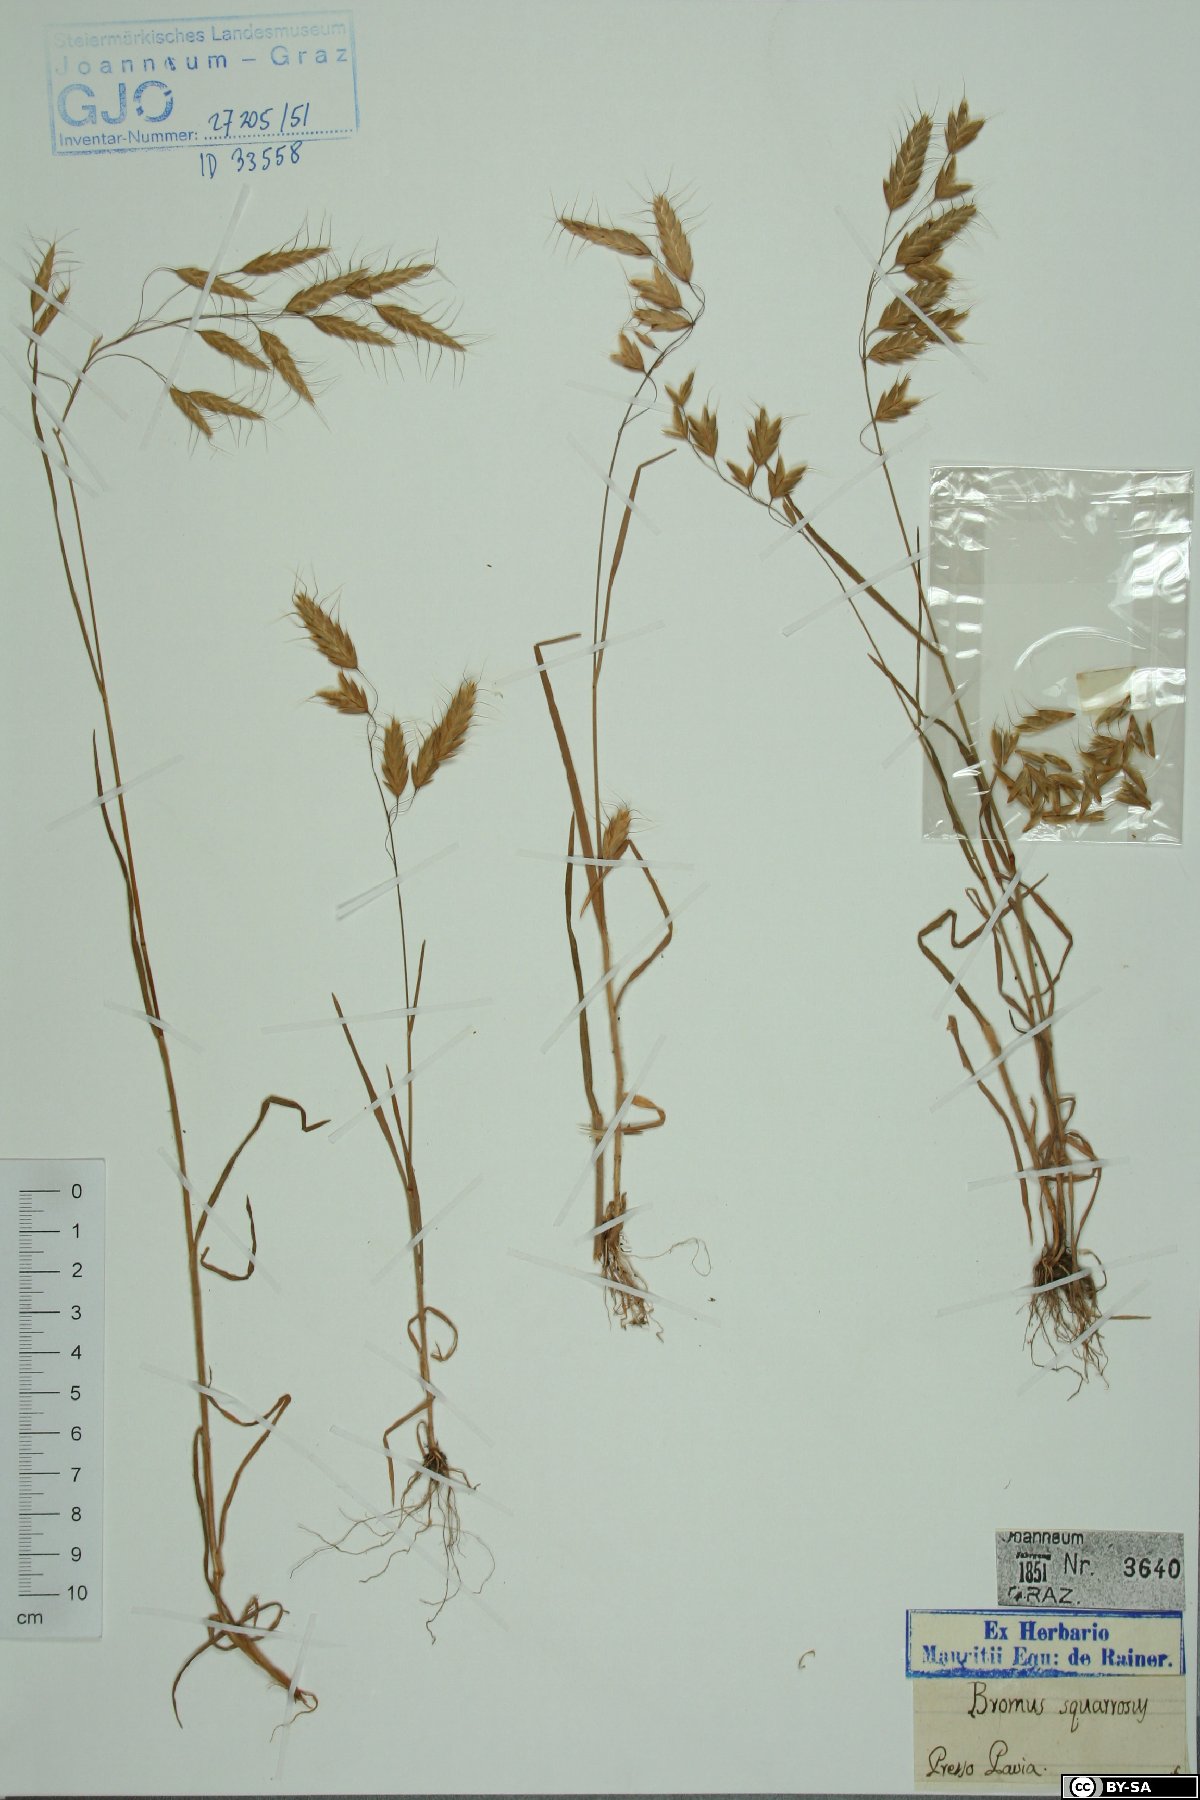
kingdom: Plantae
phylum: Tracheophyta
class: Liliopsida
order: Poales
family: Poaceae
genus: Bromus
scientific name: Bromus squarrosus
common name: Corn brome
